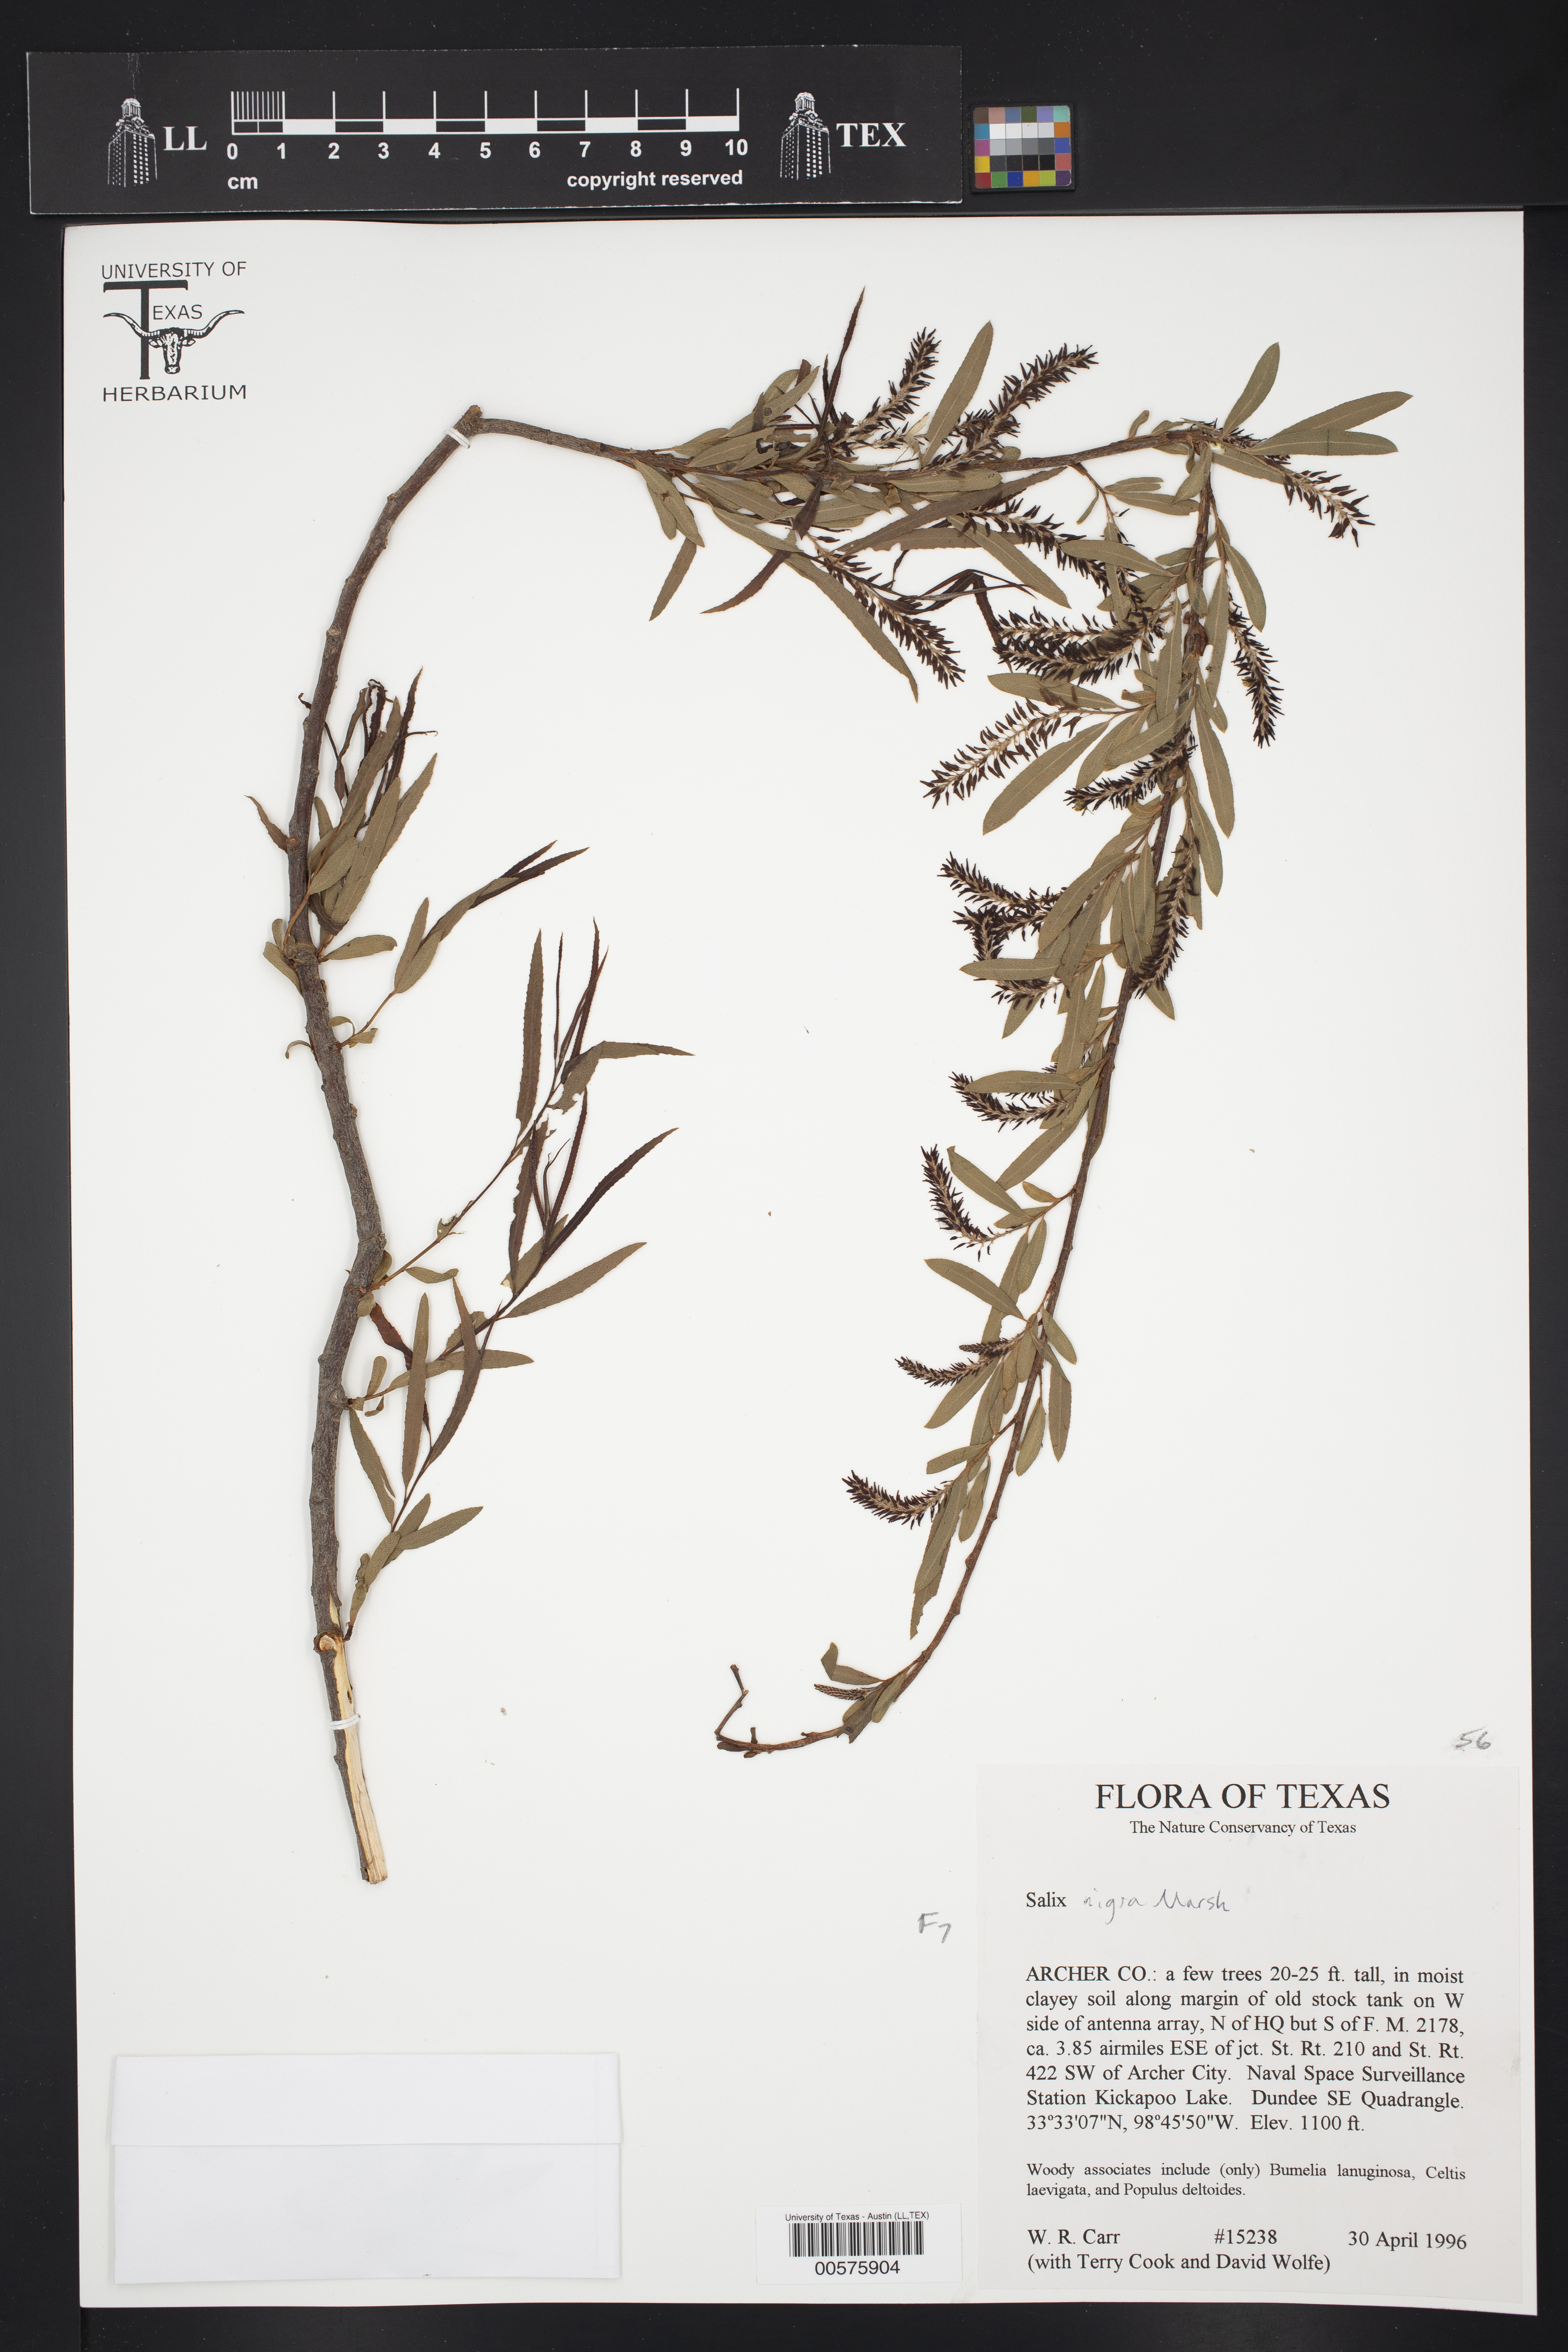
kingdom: Plantae
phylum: Tracheophyta
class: Magnoliopsida
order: Malpighiales
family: Salicaceae
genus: Salix
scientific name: Salix nigra
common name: Black willow
